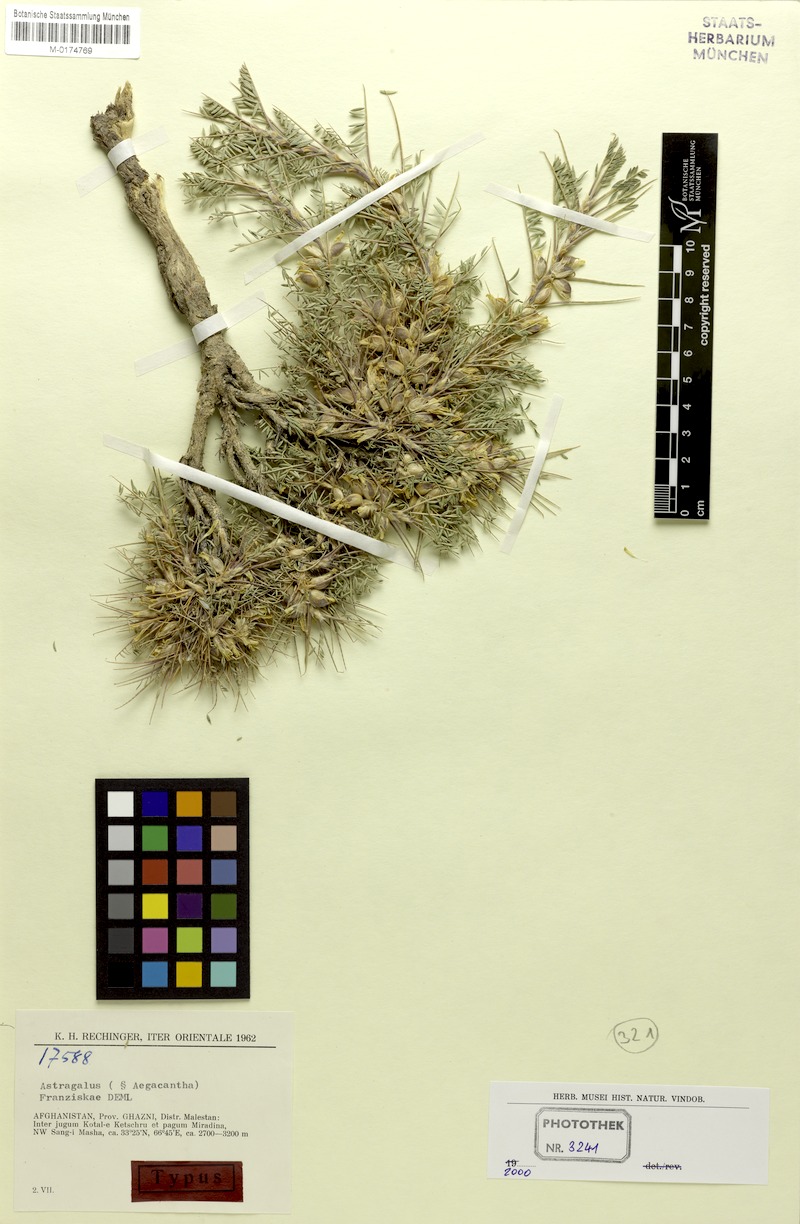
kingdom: Plantae
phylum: Tracheophyta
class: Magnoliopsida
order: Fabales
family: Fabaceae
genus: Astragalus
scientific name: Astragalus franziskae
